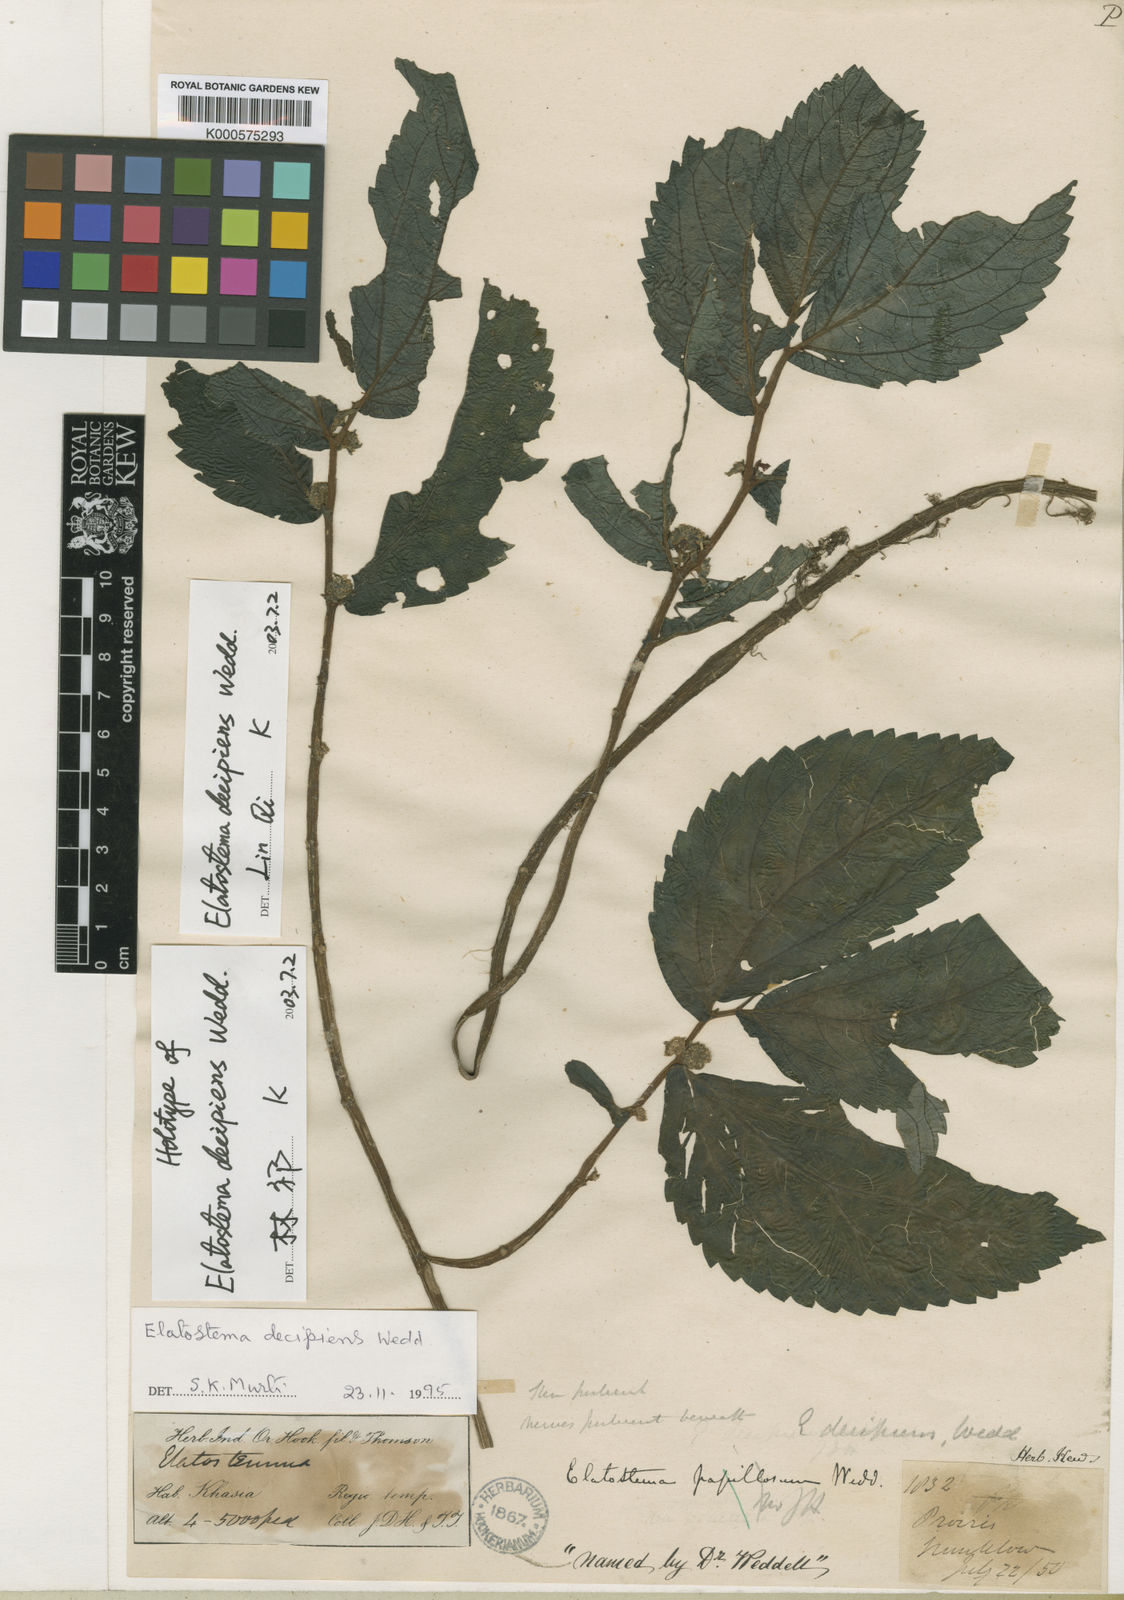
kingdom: Plantae
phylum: Tracheophyta
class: Magnoliopsida
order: Rosales
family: Urticaceae
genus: Elatostema
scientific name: Elatostema decipiens
